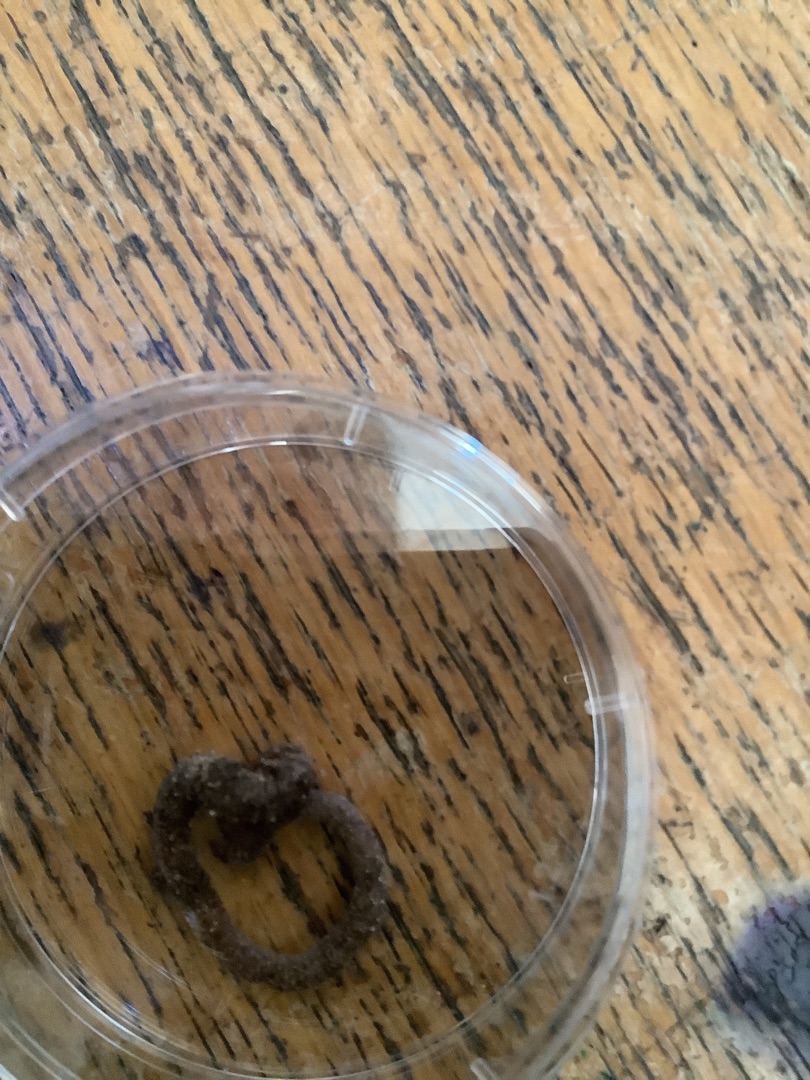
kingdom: Animalia
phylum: Annelida
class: Clitellata
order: Crassiclitellata
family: Lumbricidae
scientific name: Lumbricidae
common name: Regnorme
